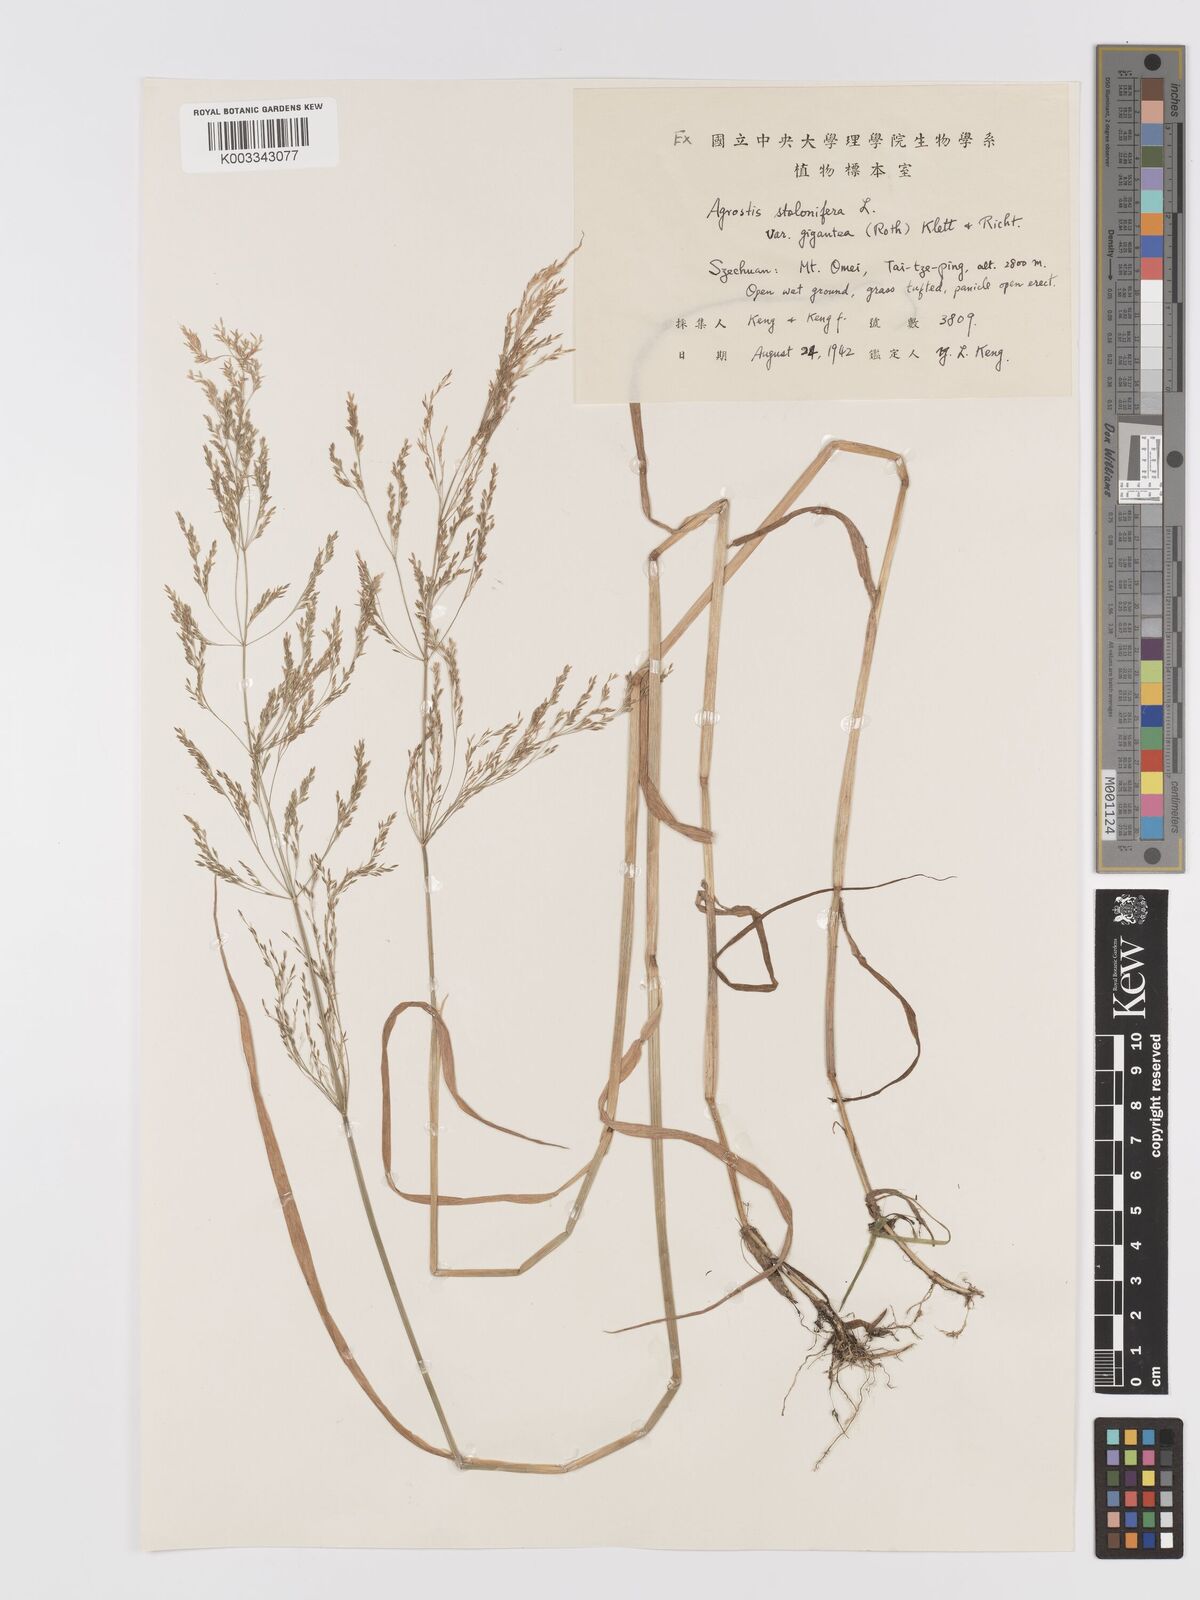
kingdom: Plantae
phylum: Tracheophyta
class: Liliopsida
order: Poales
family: Poaceae
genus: Agrostis
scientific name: Agrostis gigantea
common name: Black bent
